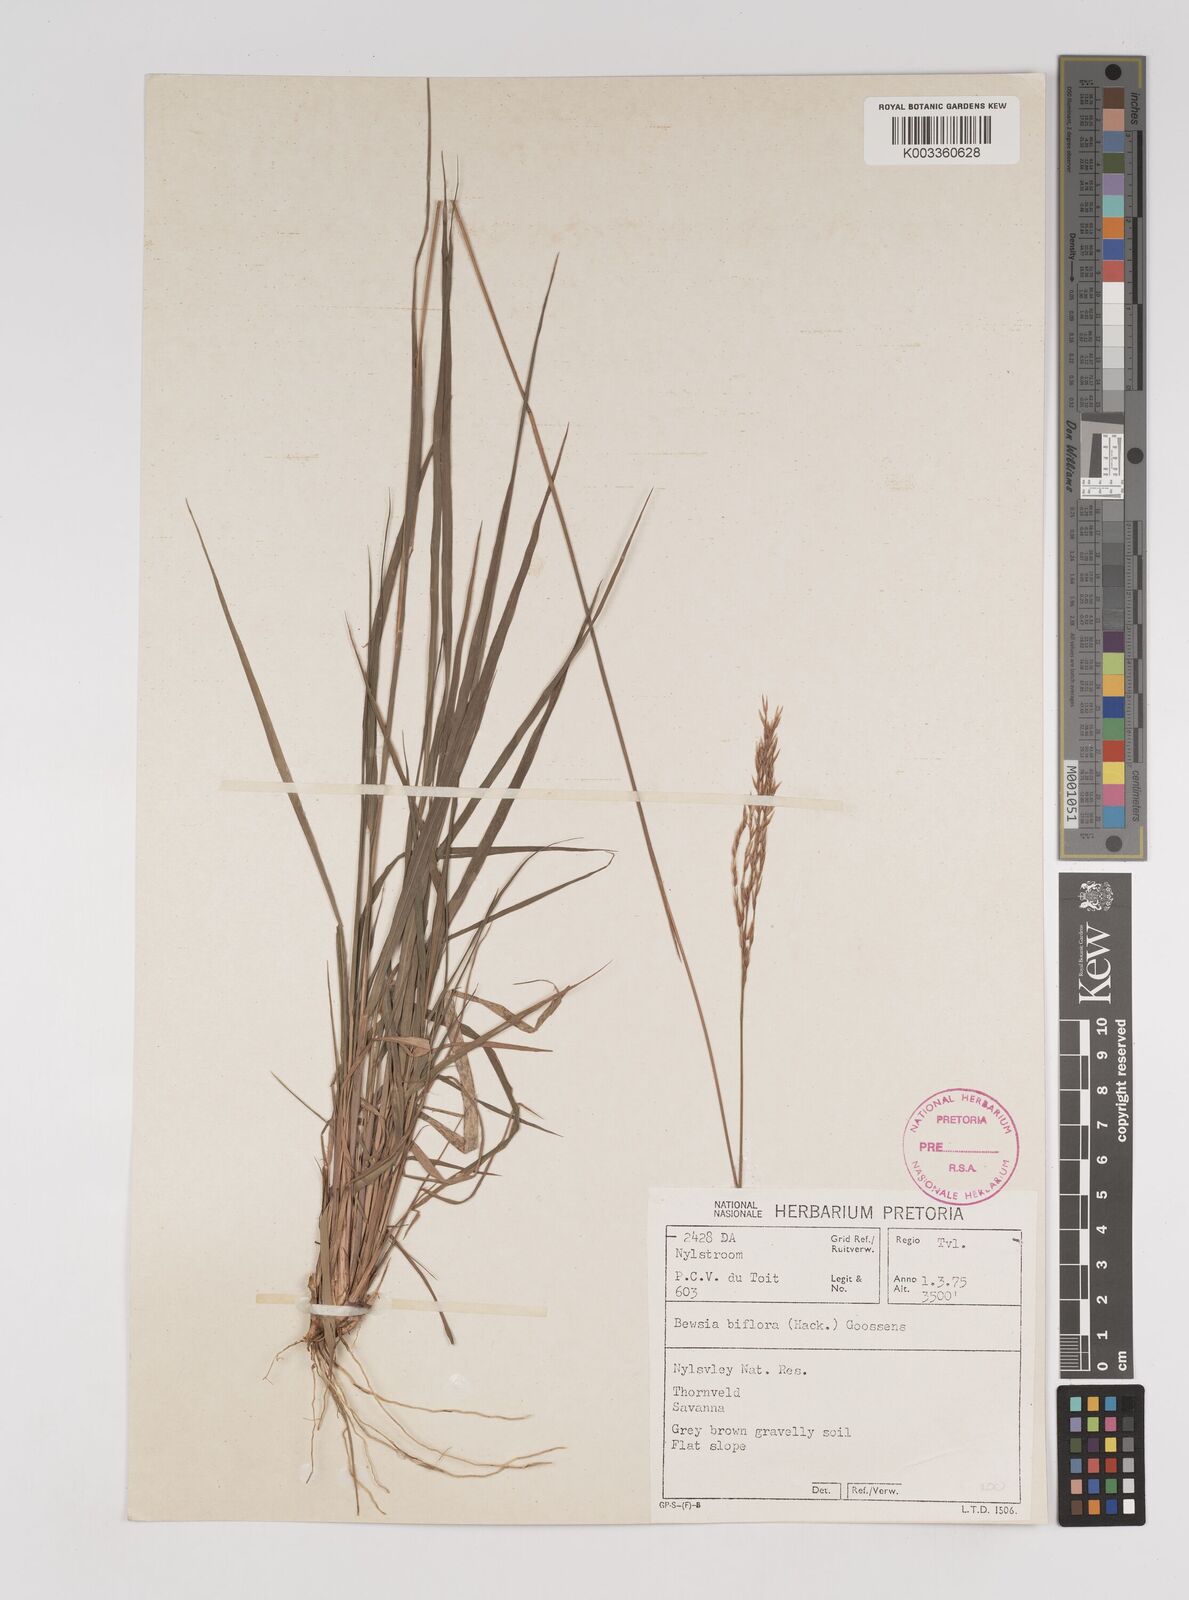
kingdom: Plantae
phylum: Tracheophyta
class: Liliopsida
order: Poales
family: Poaceae
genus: Bewsia
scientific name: Bewsia biflora
